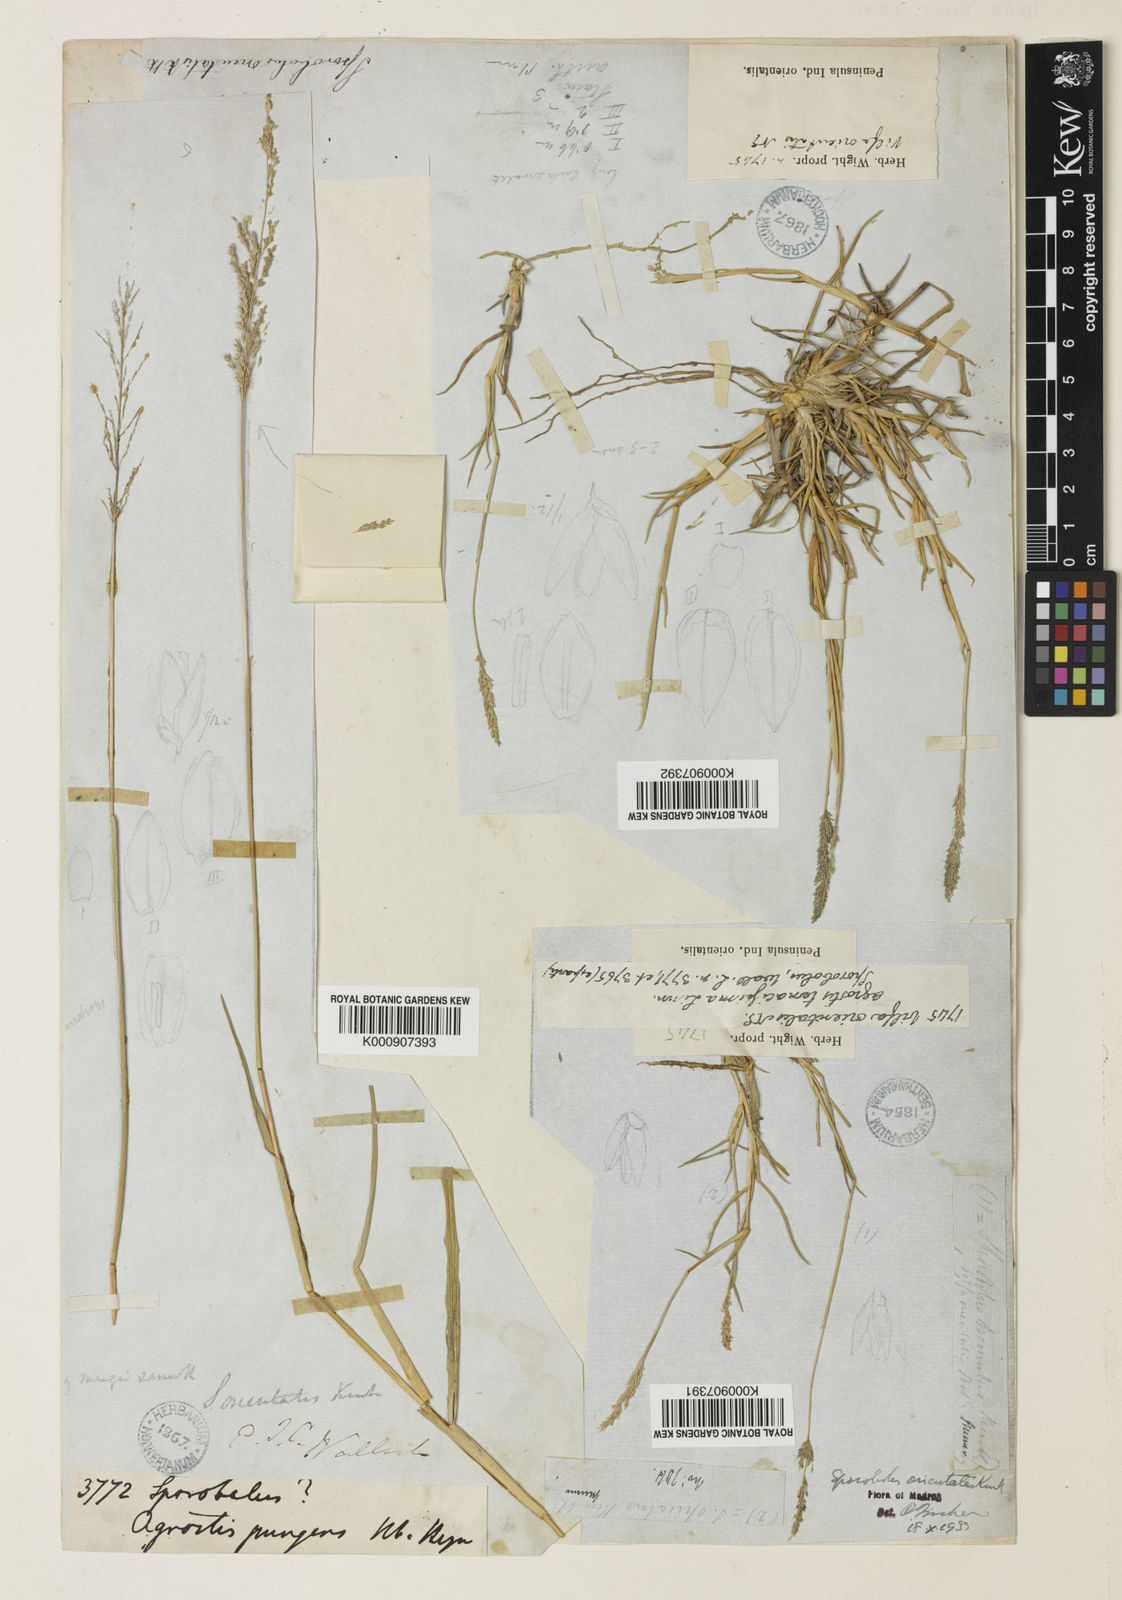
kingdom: Plantae
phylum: Tracheophyta
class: Liliopsida
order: Poales
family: Poaceae
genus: Sporobolus
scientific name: Sporobolus maderaspatanus
